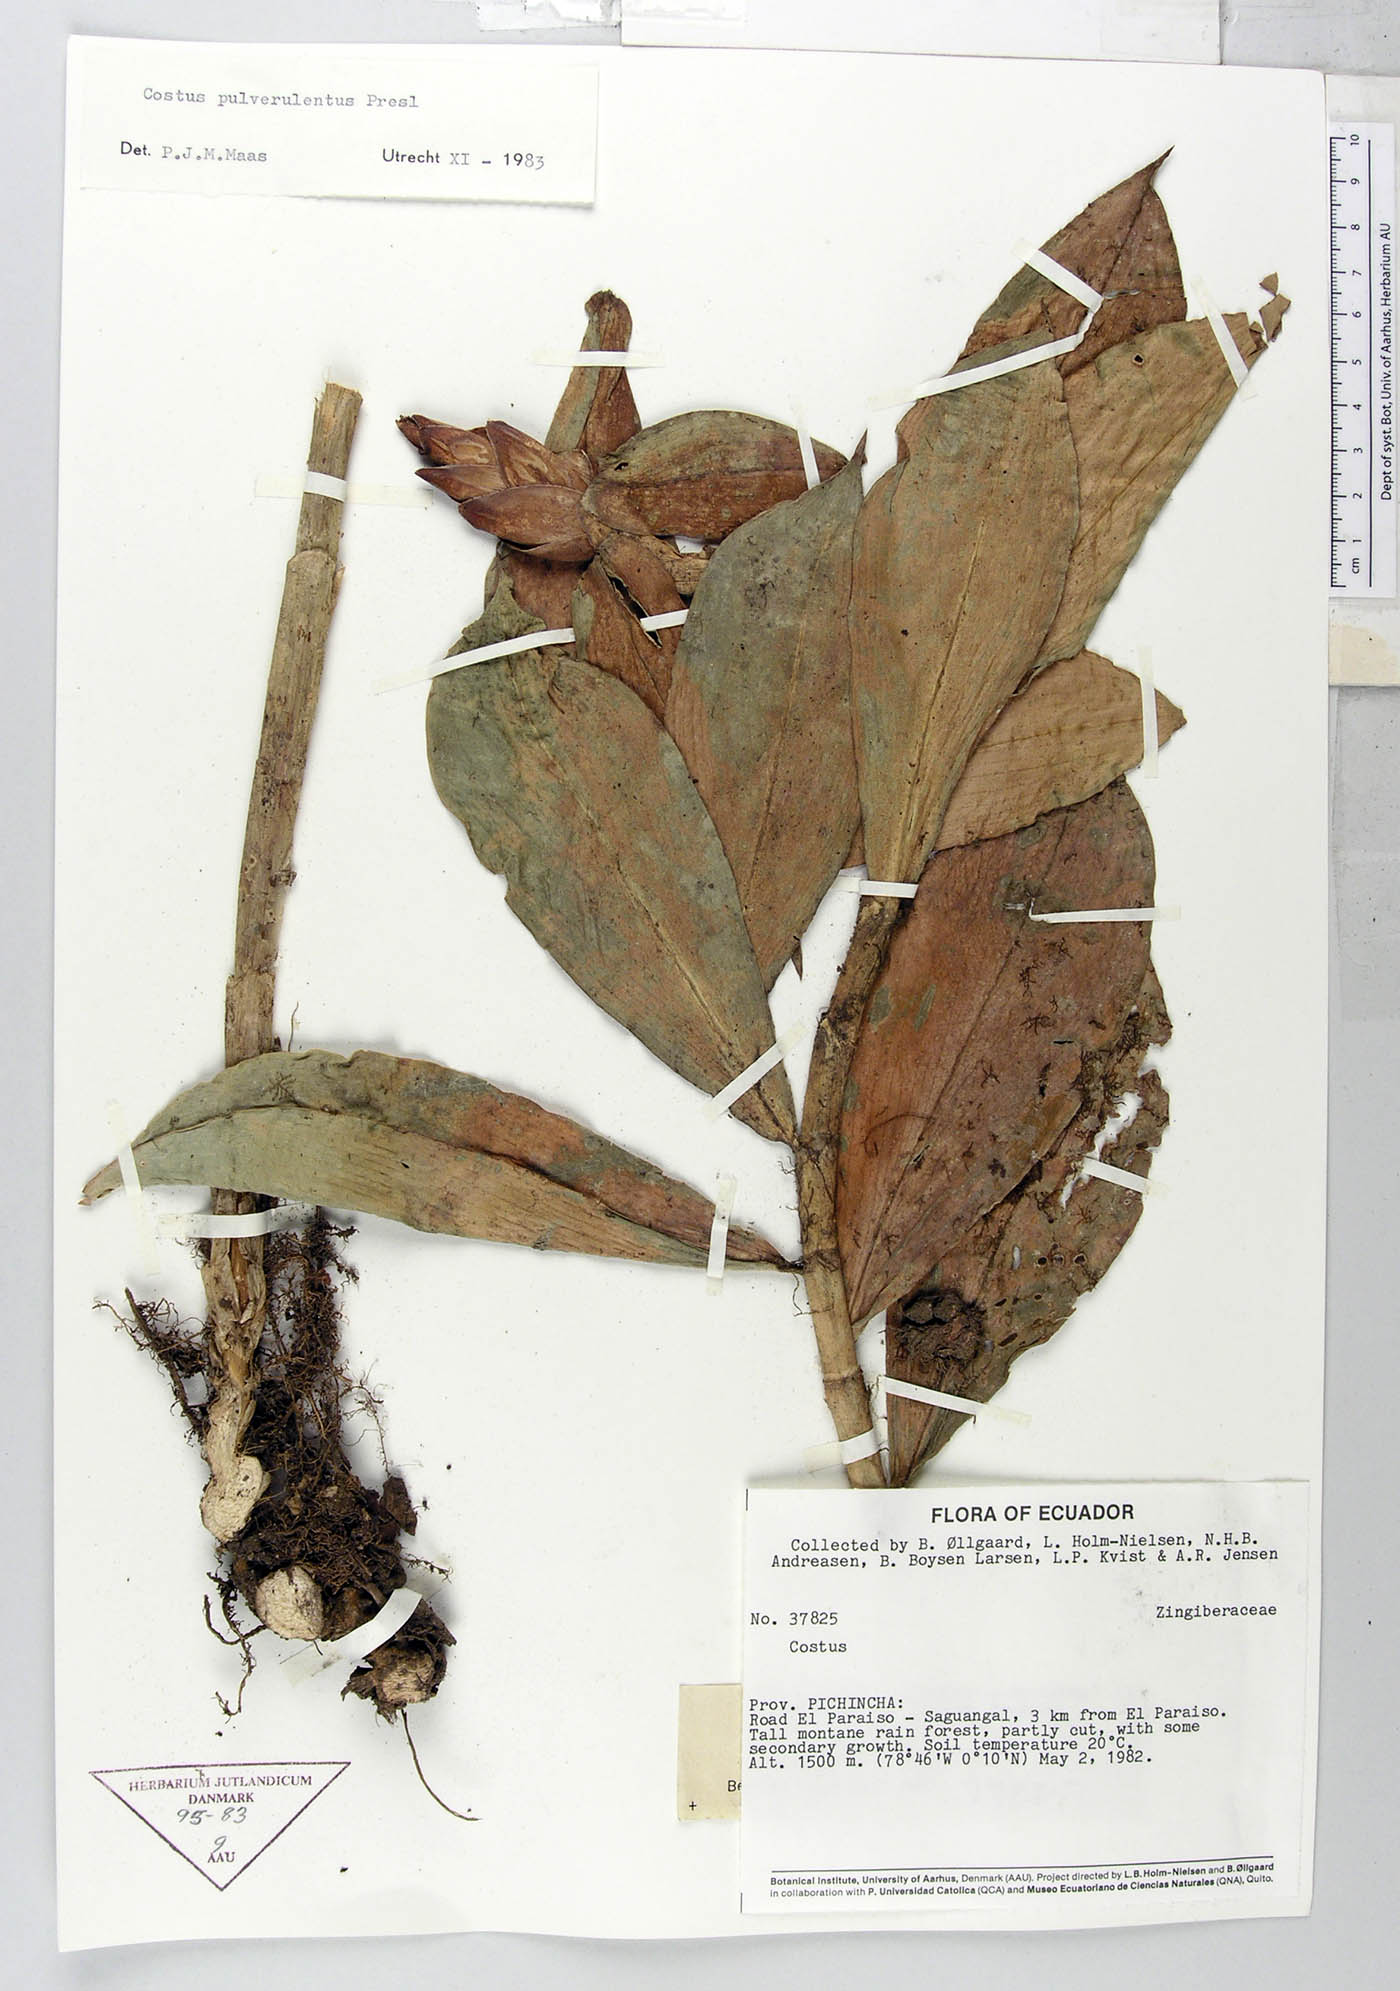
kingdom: Plantae
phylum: Tracheophyta
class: Liliopsida
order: Zingiberales
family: Costaceae
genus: Costus
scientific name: Costus pulverulentus
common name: Spiral ginger
